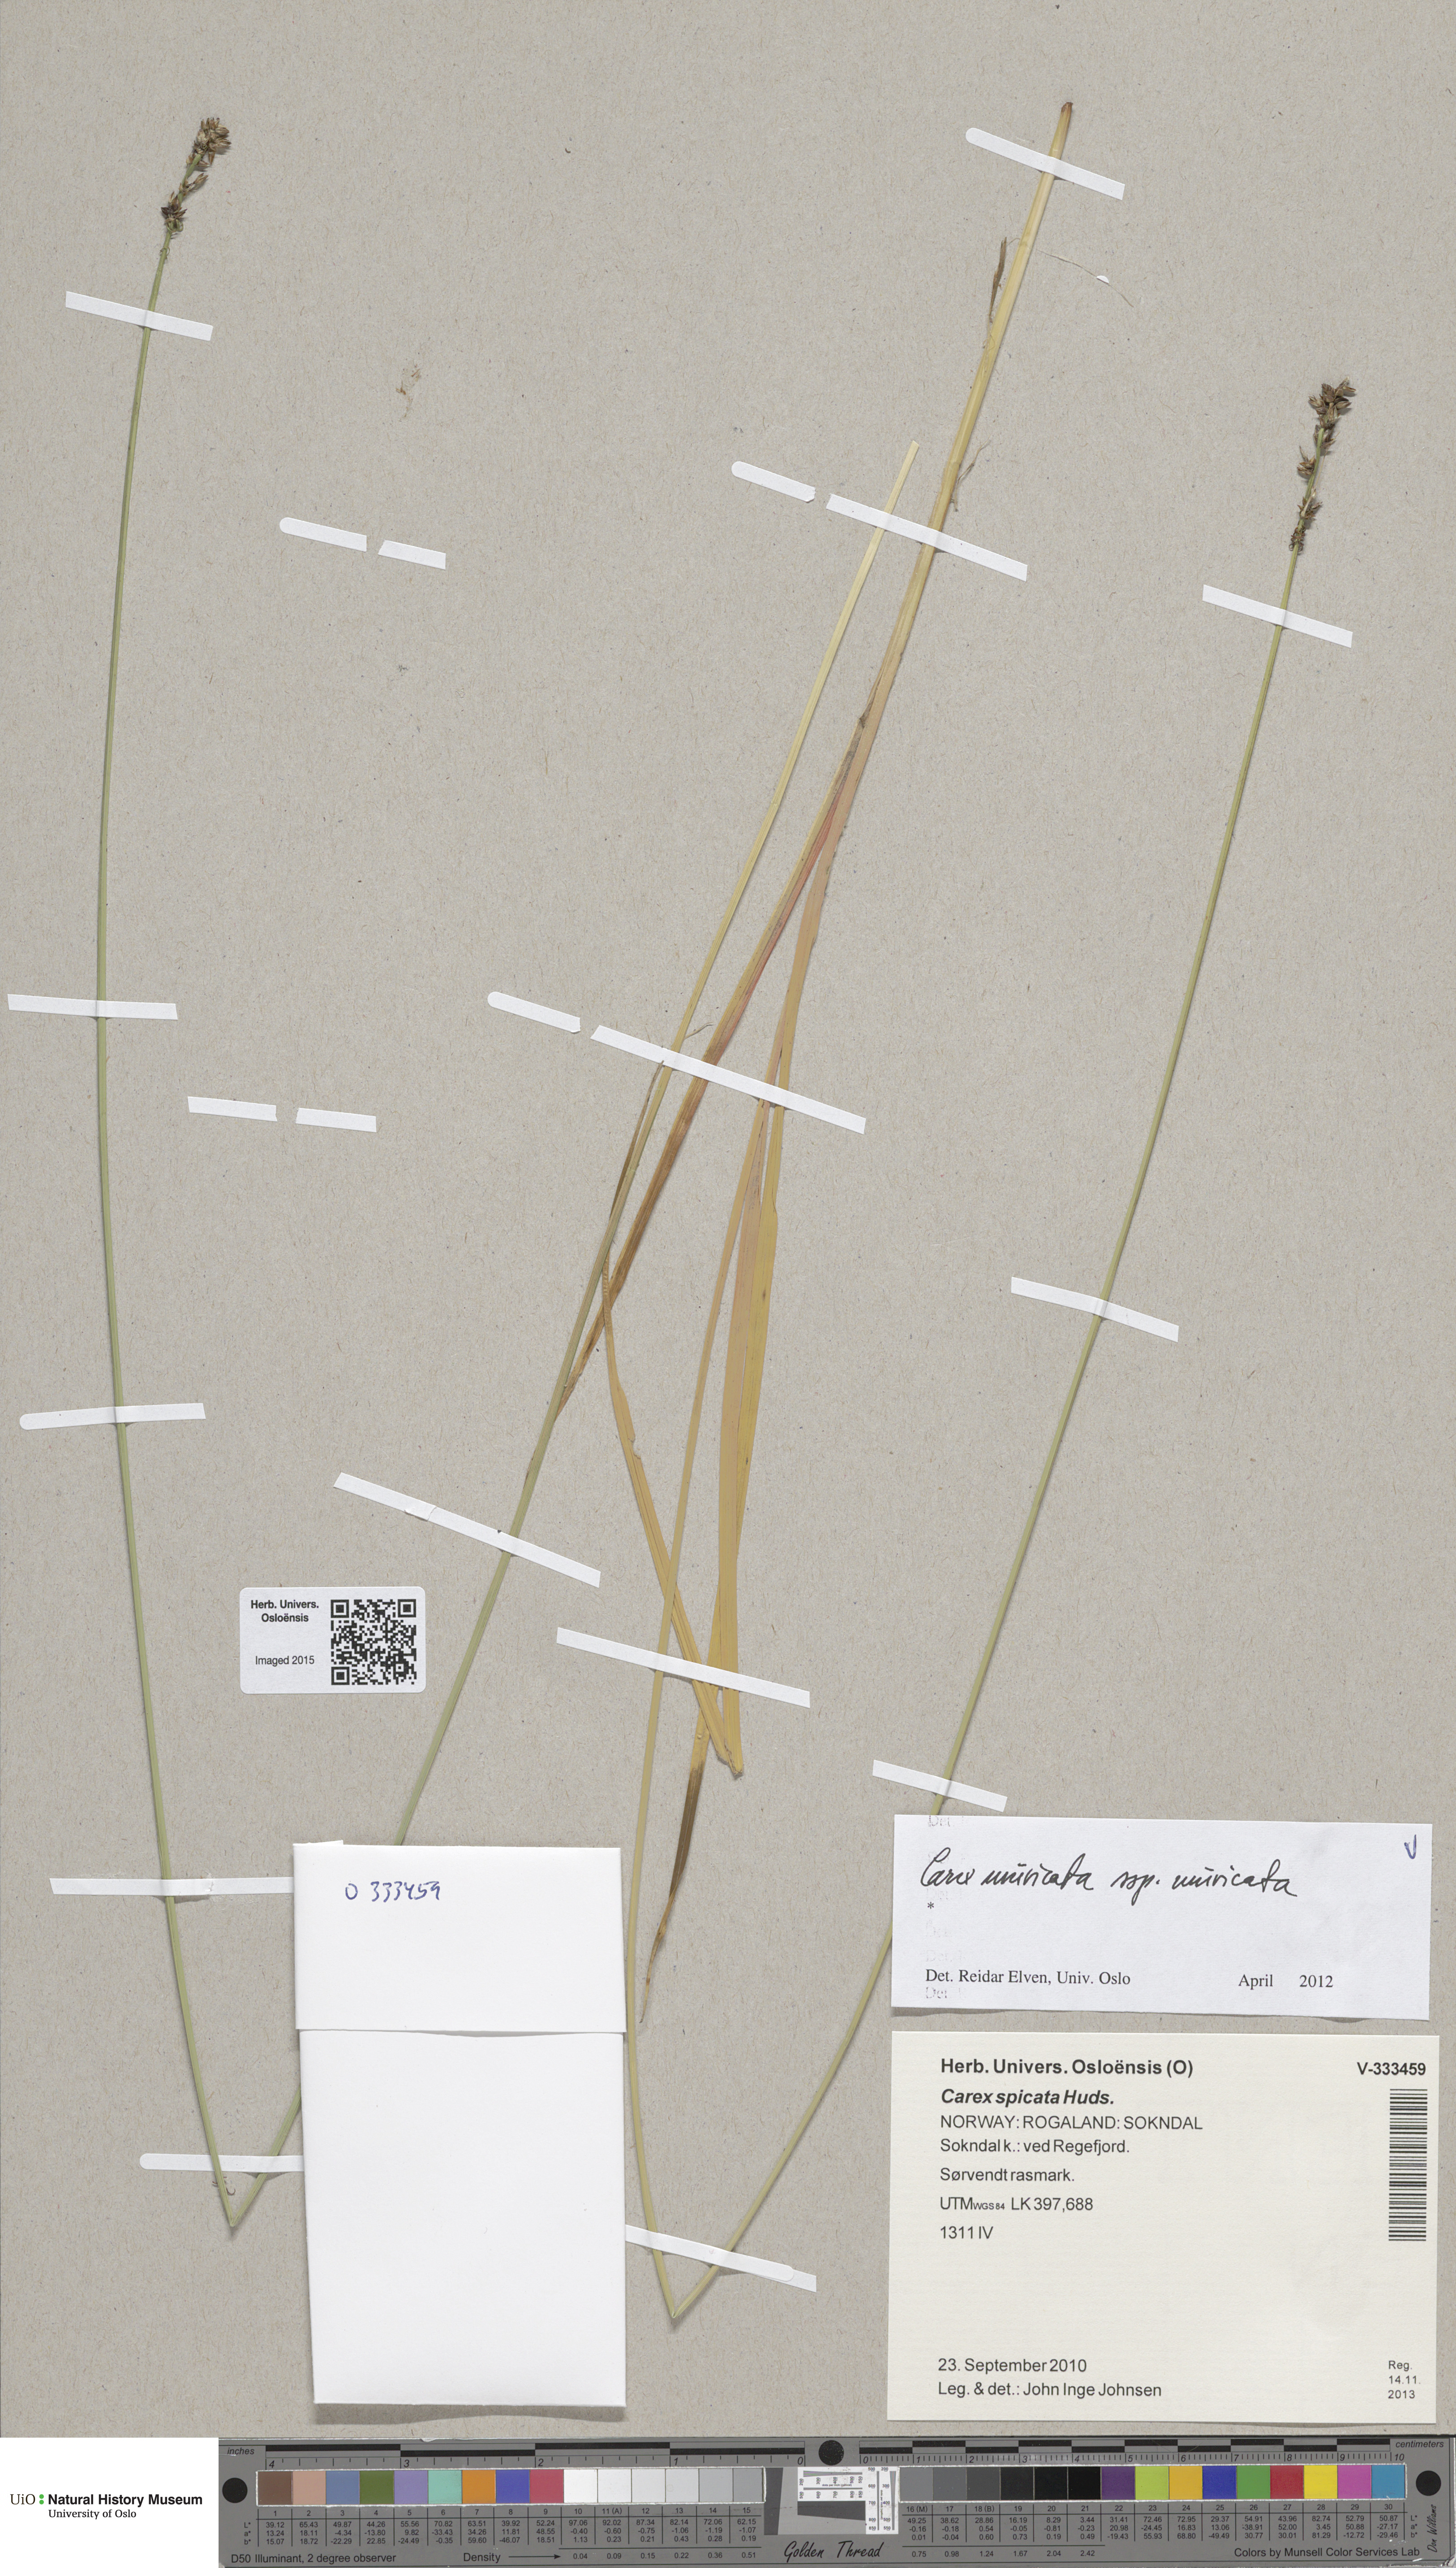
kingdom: Plantae
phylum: Tracheophyta
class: Liliopsida
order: Poales
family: Cyperaceae
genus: Carex
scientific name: Carex muricata
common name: Rough sedge
